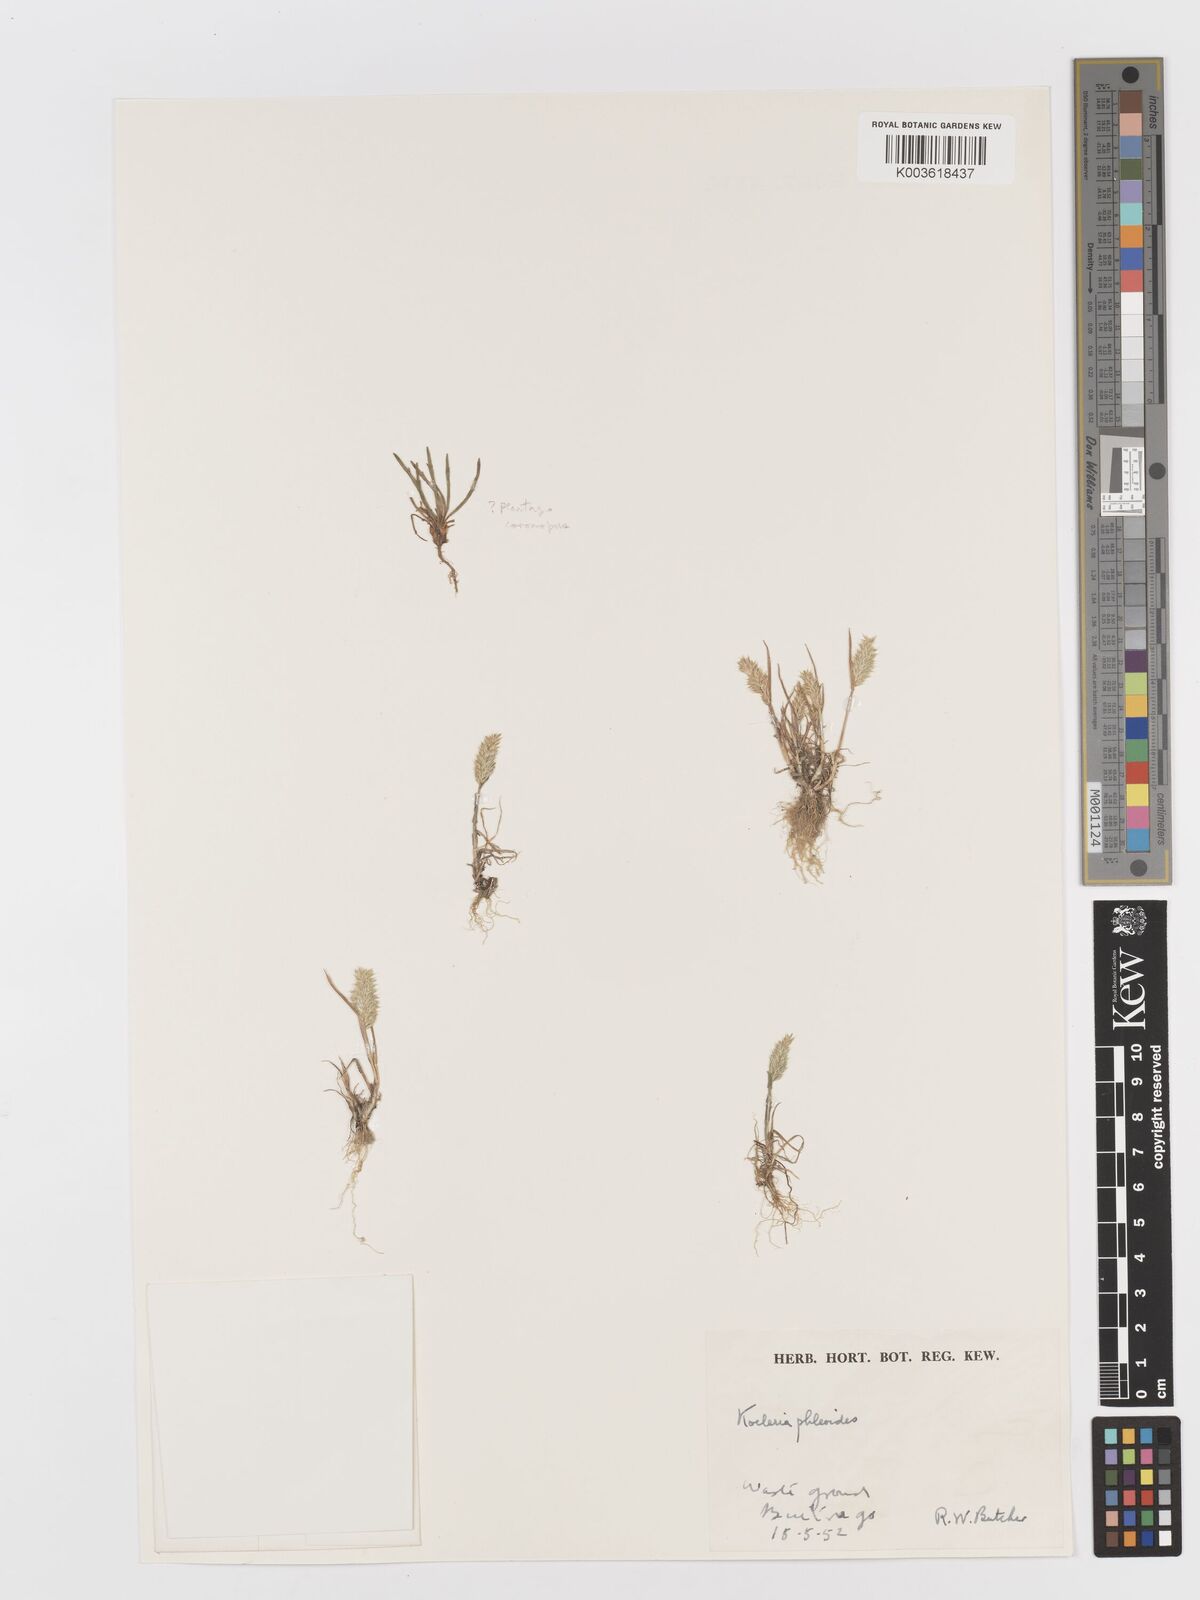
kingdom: Plantae
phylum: Tracheophyta
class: Liliopsida
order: Poales
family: Poaceae
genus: Rostraria
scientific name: Rostraria cristata
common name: Mediterranean hair-grass
